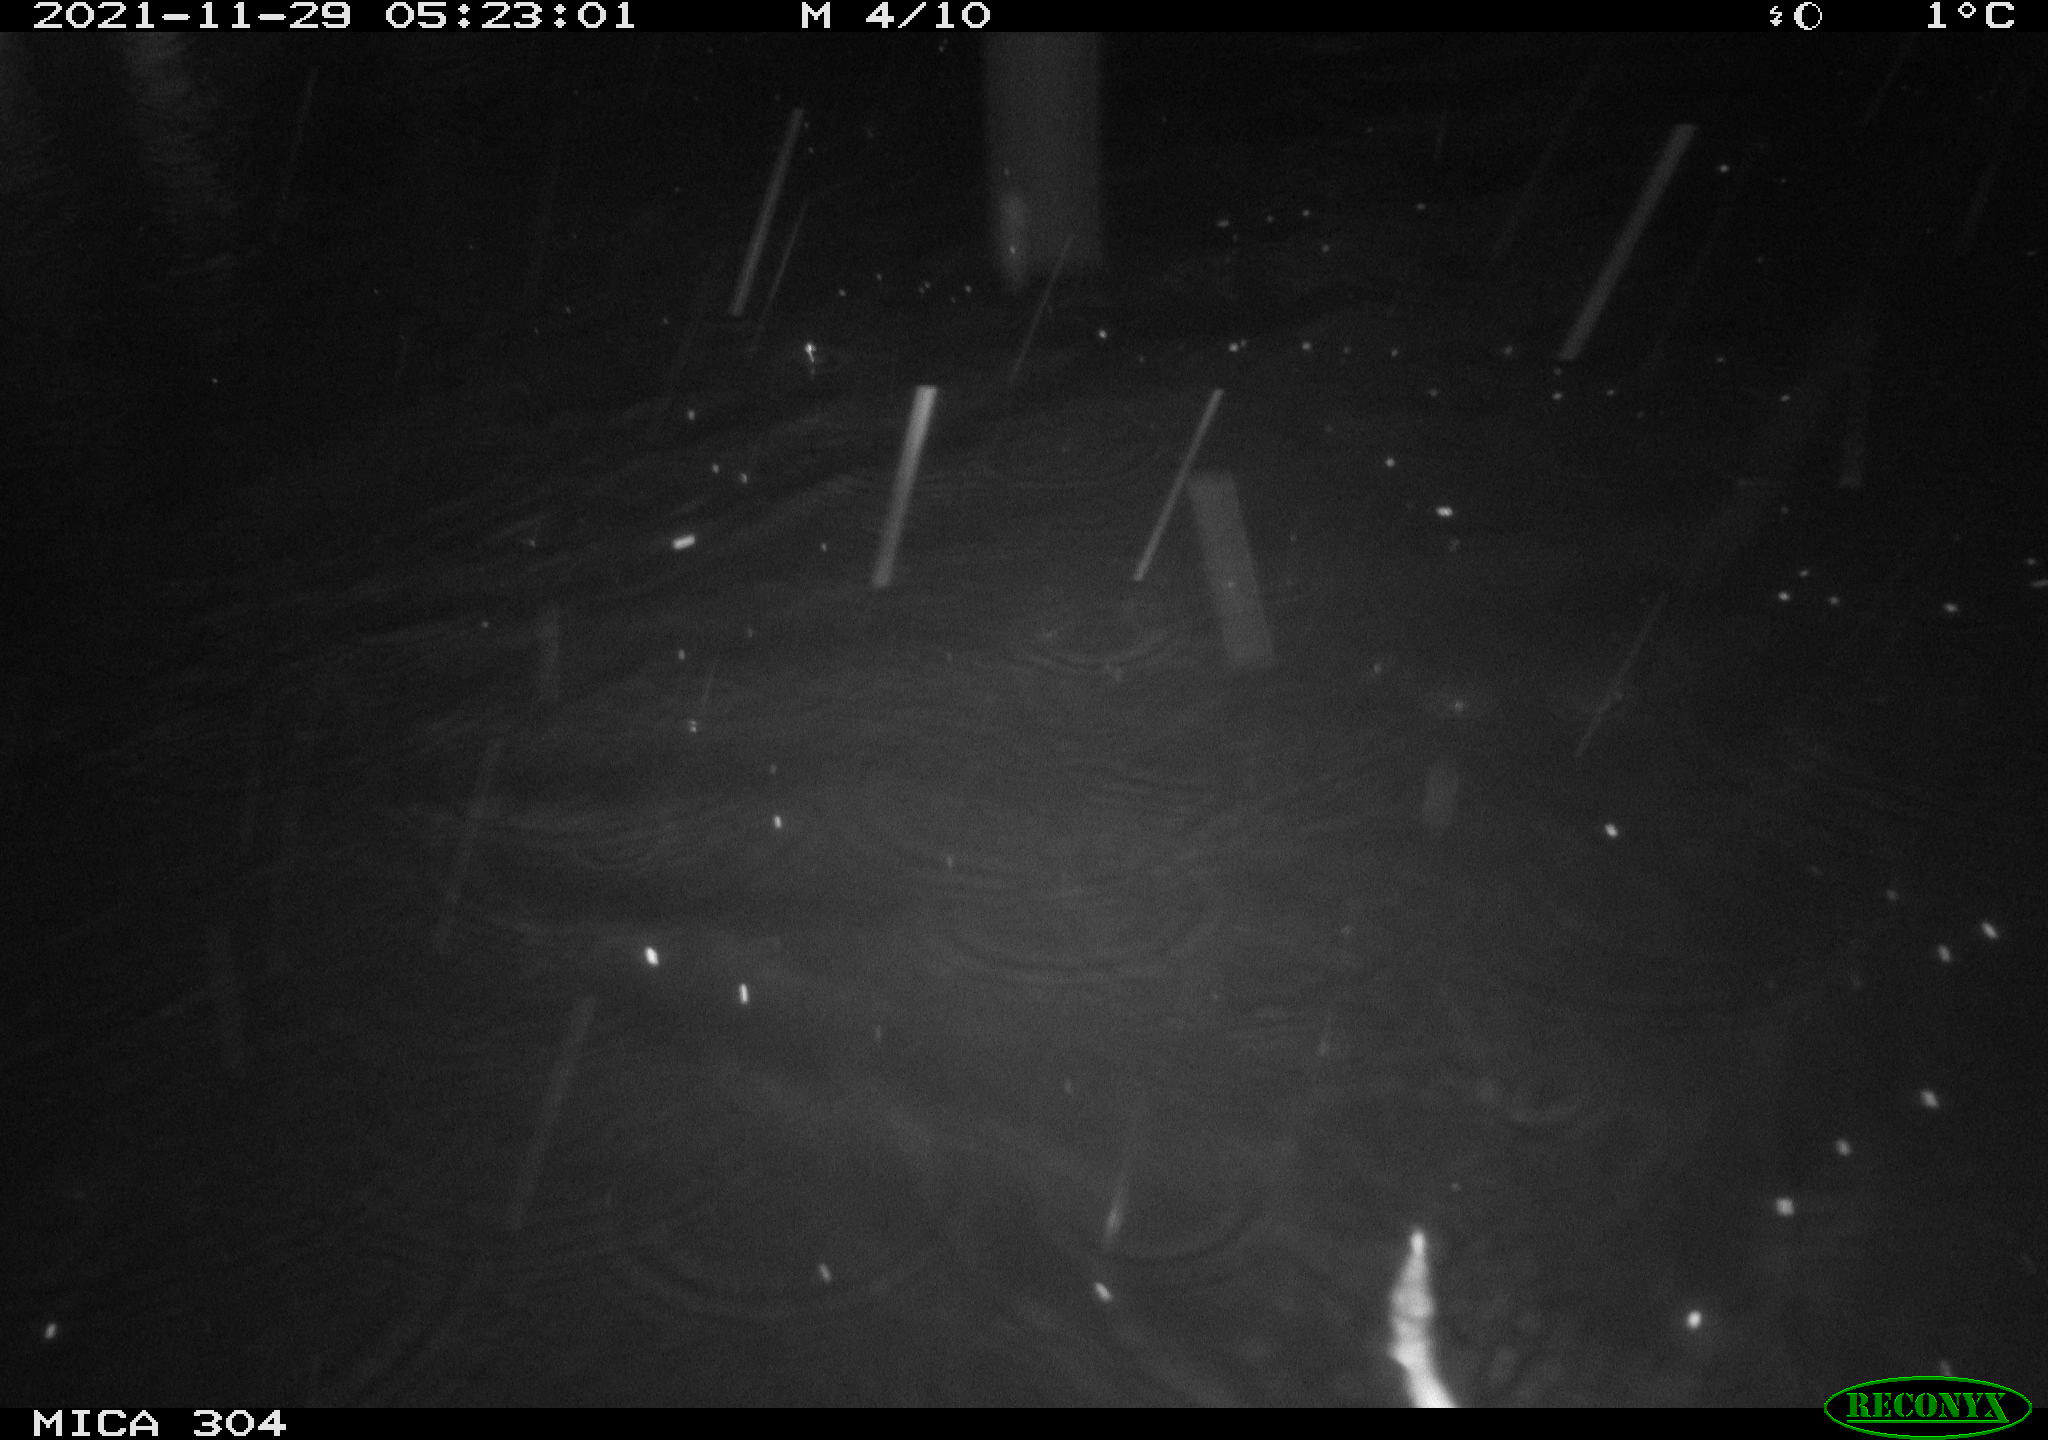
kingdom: Animalia
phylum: Chordata
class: Mammalia
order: Rodentia
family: Muridae
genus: Rattus
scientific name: Rattus norvegicus
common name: Brown rat
